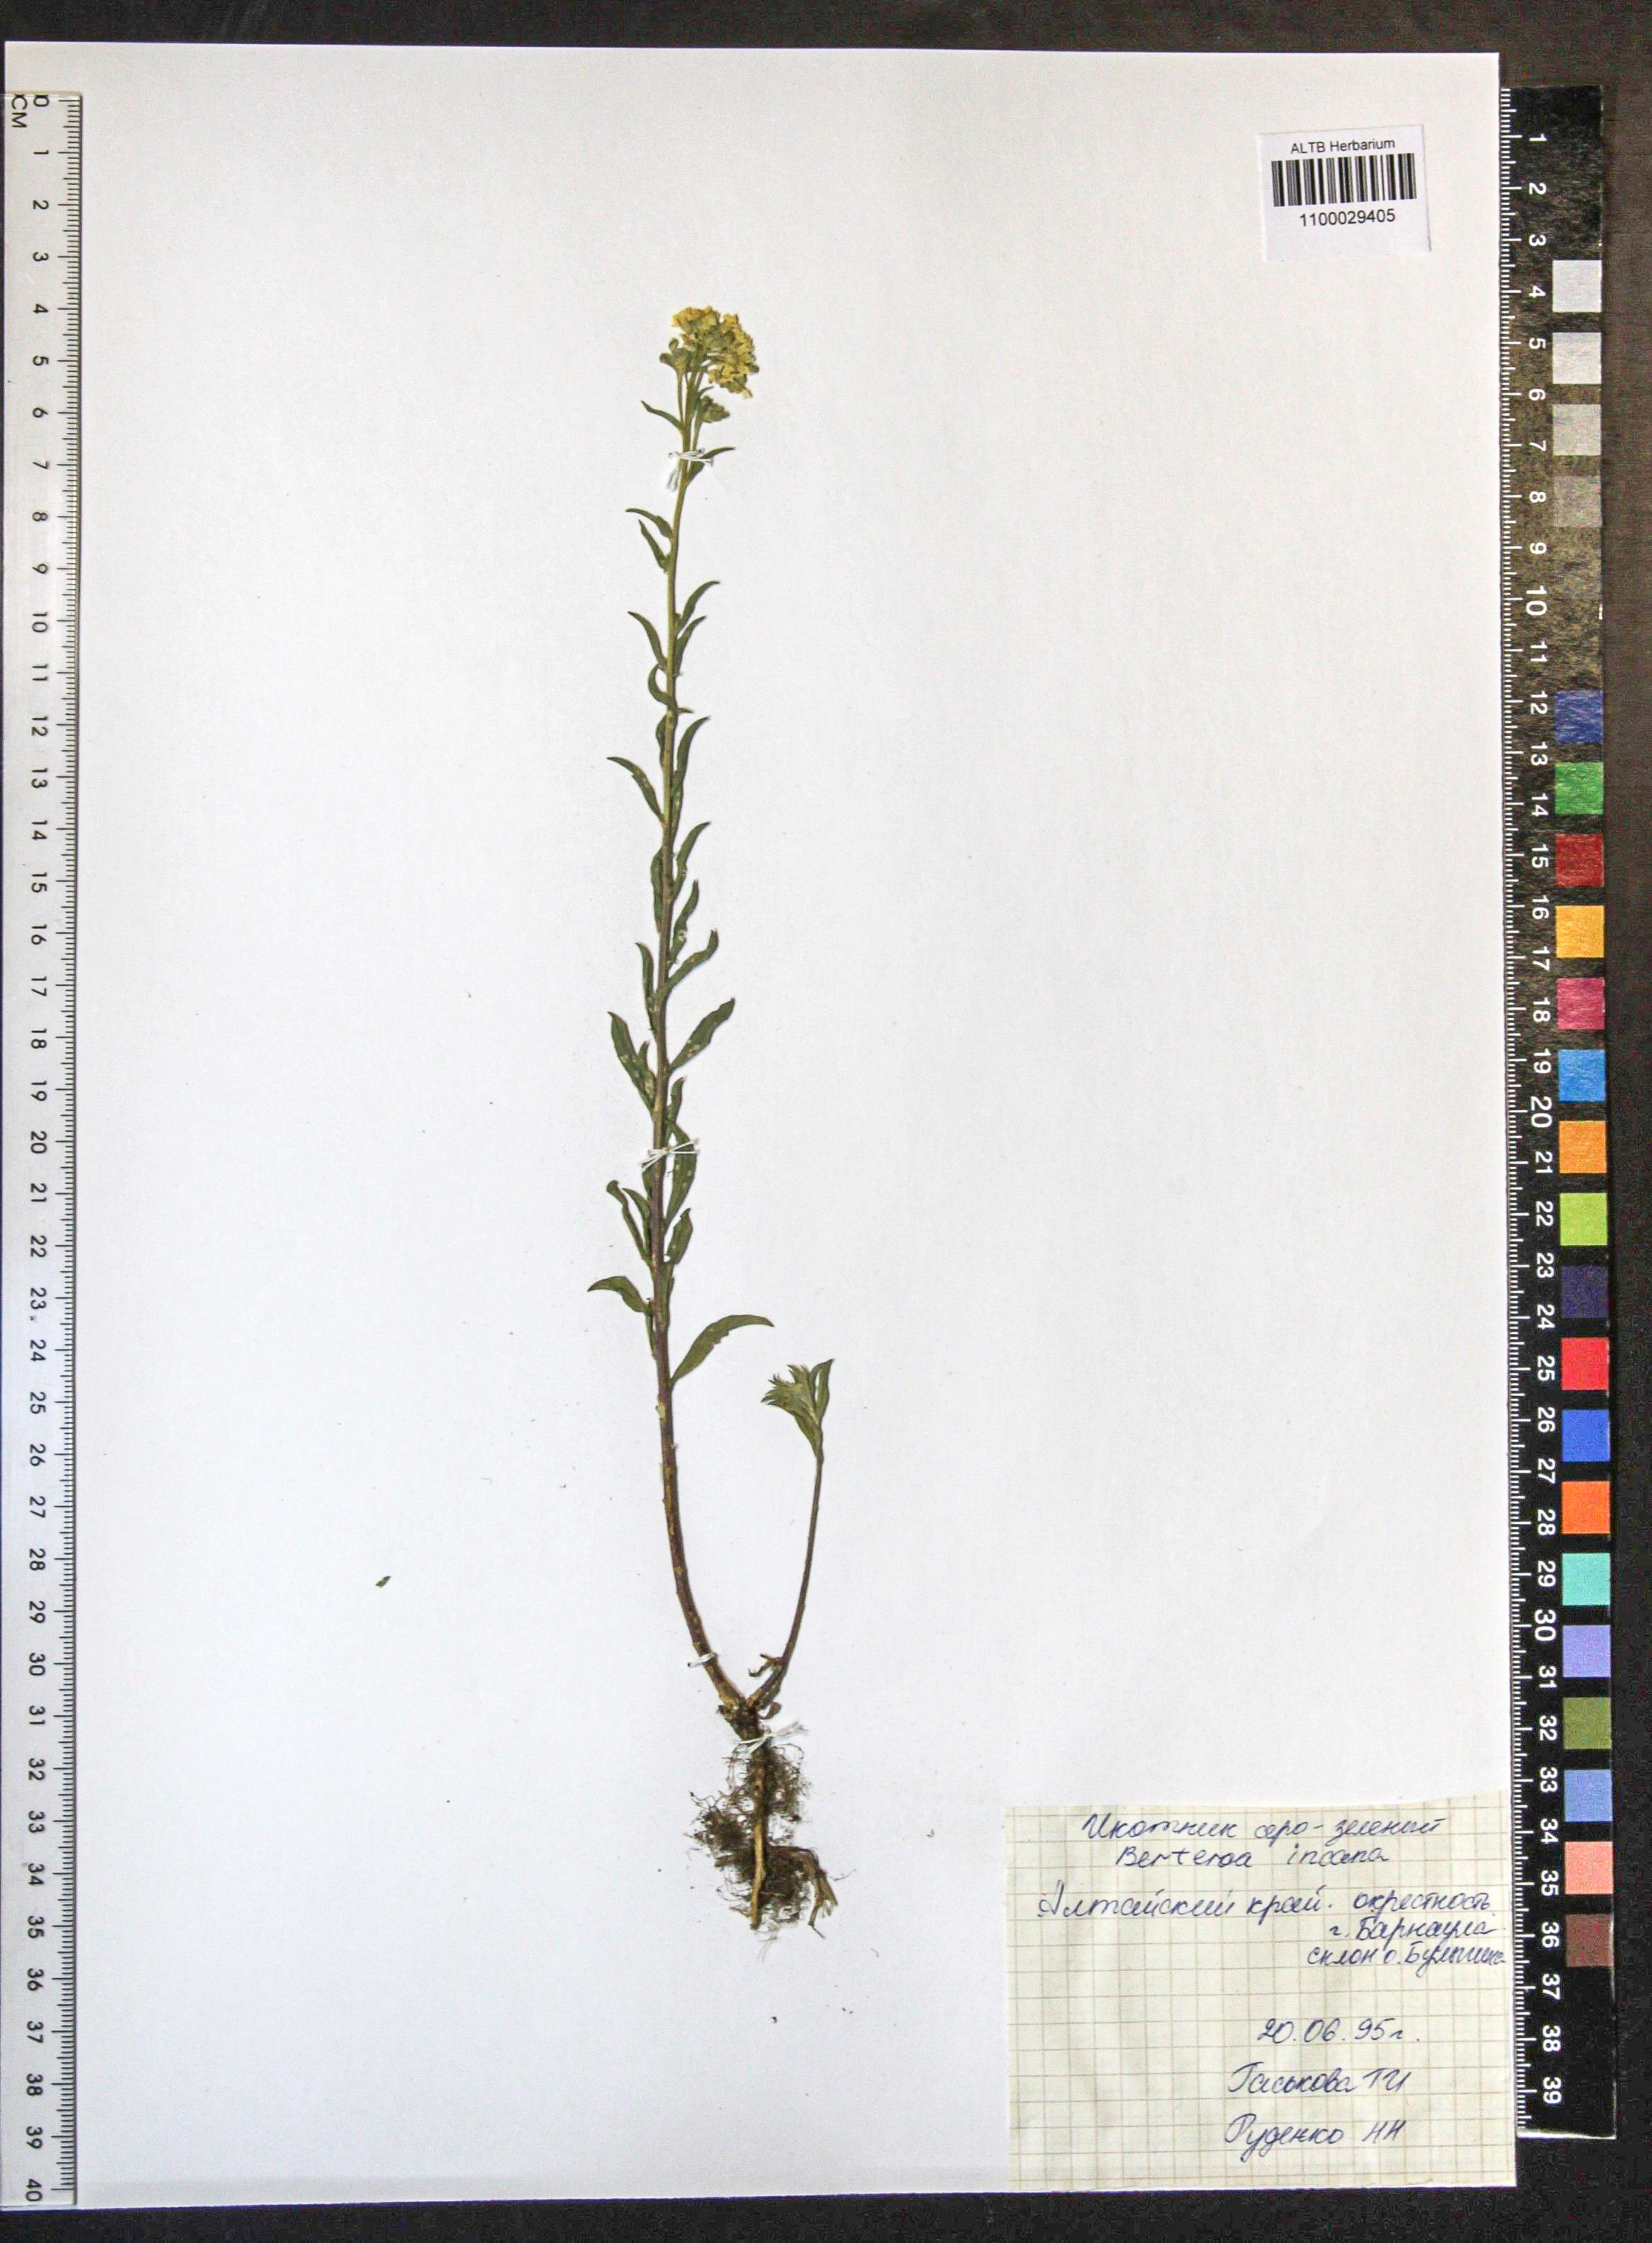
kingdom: Plantae
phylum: Tracheophyta
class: Magnoliopsida
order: Brassicales
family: Brassicaceae
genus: Berteroa
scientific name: Berteroa incana
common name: Hoary alison
